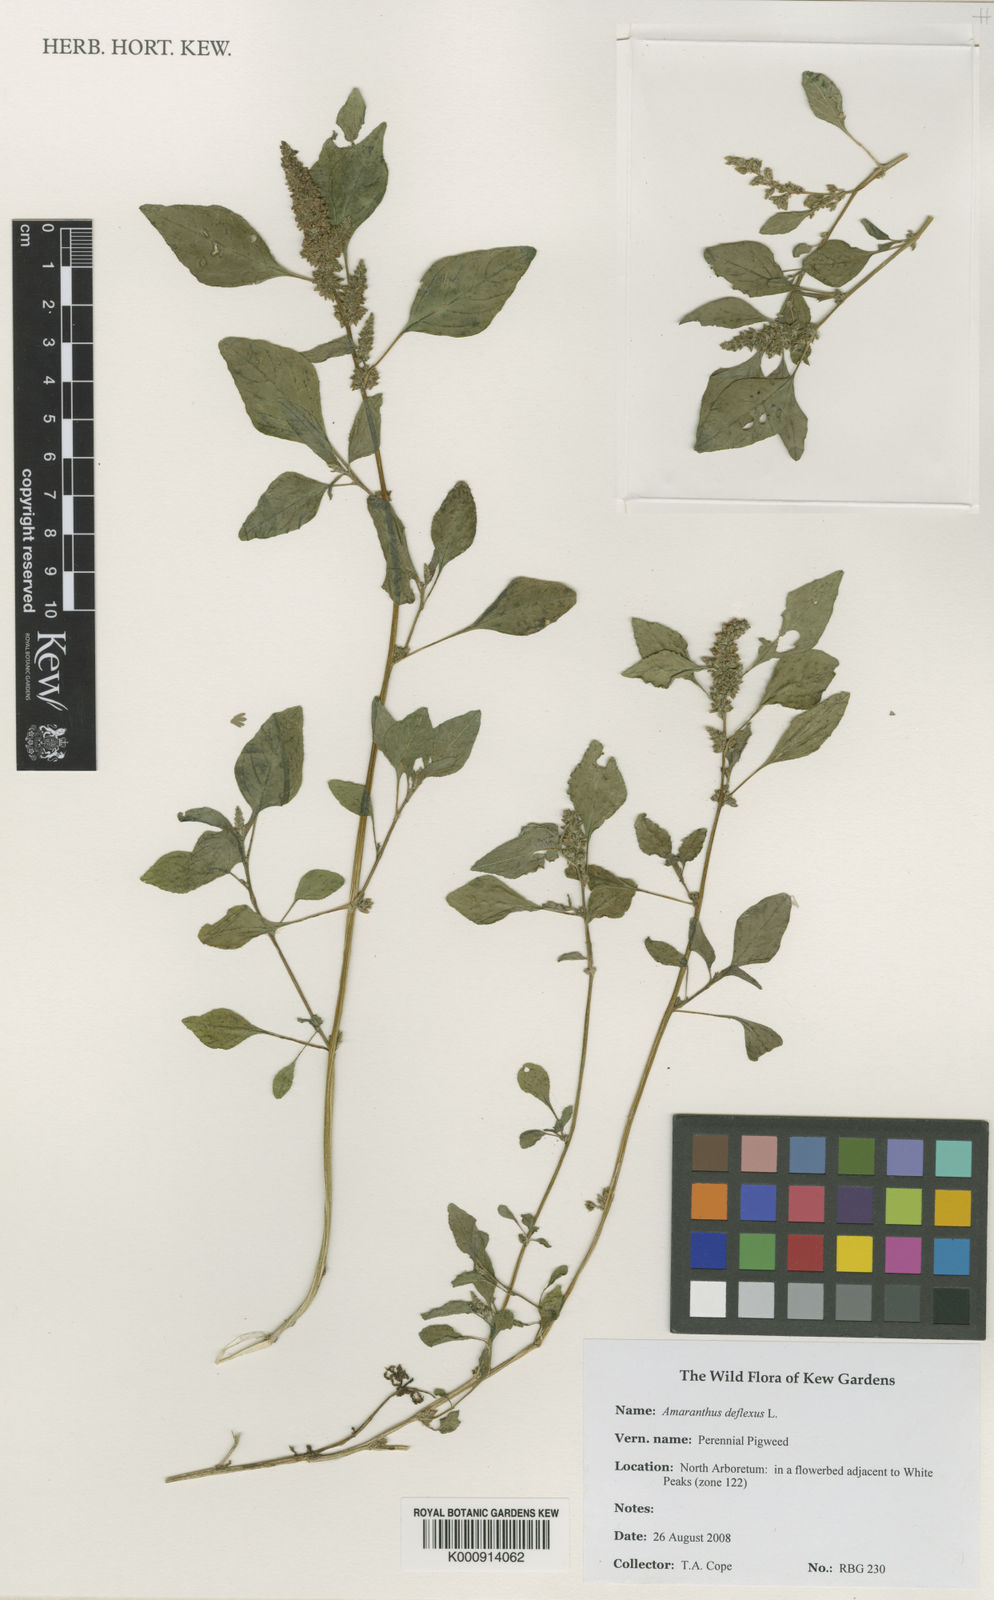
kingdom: Plantae
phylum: Tracheophyta
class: Magnoliopsida
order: Caryophyllales
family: Amaranthaceae
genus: Amaranthus
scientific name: Amaranthus deflexus
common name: Perennial pigweed
